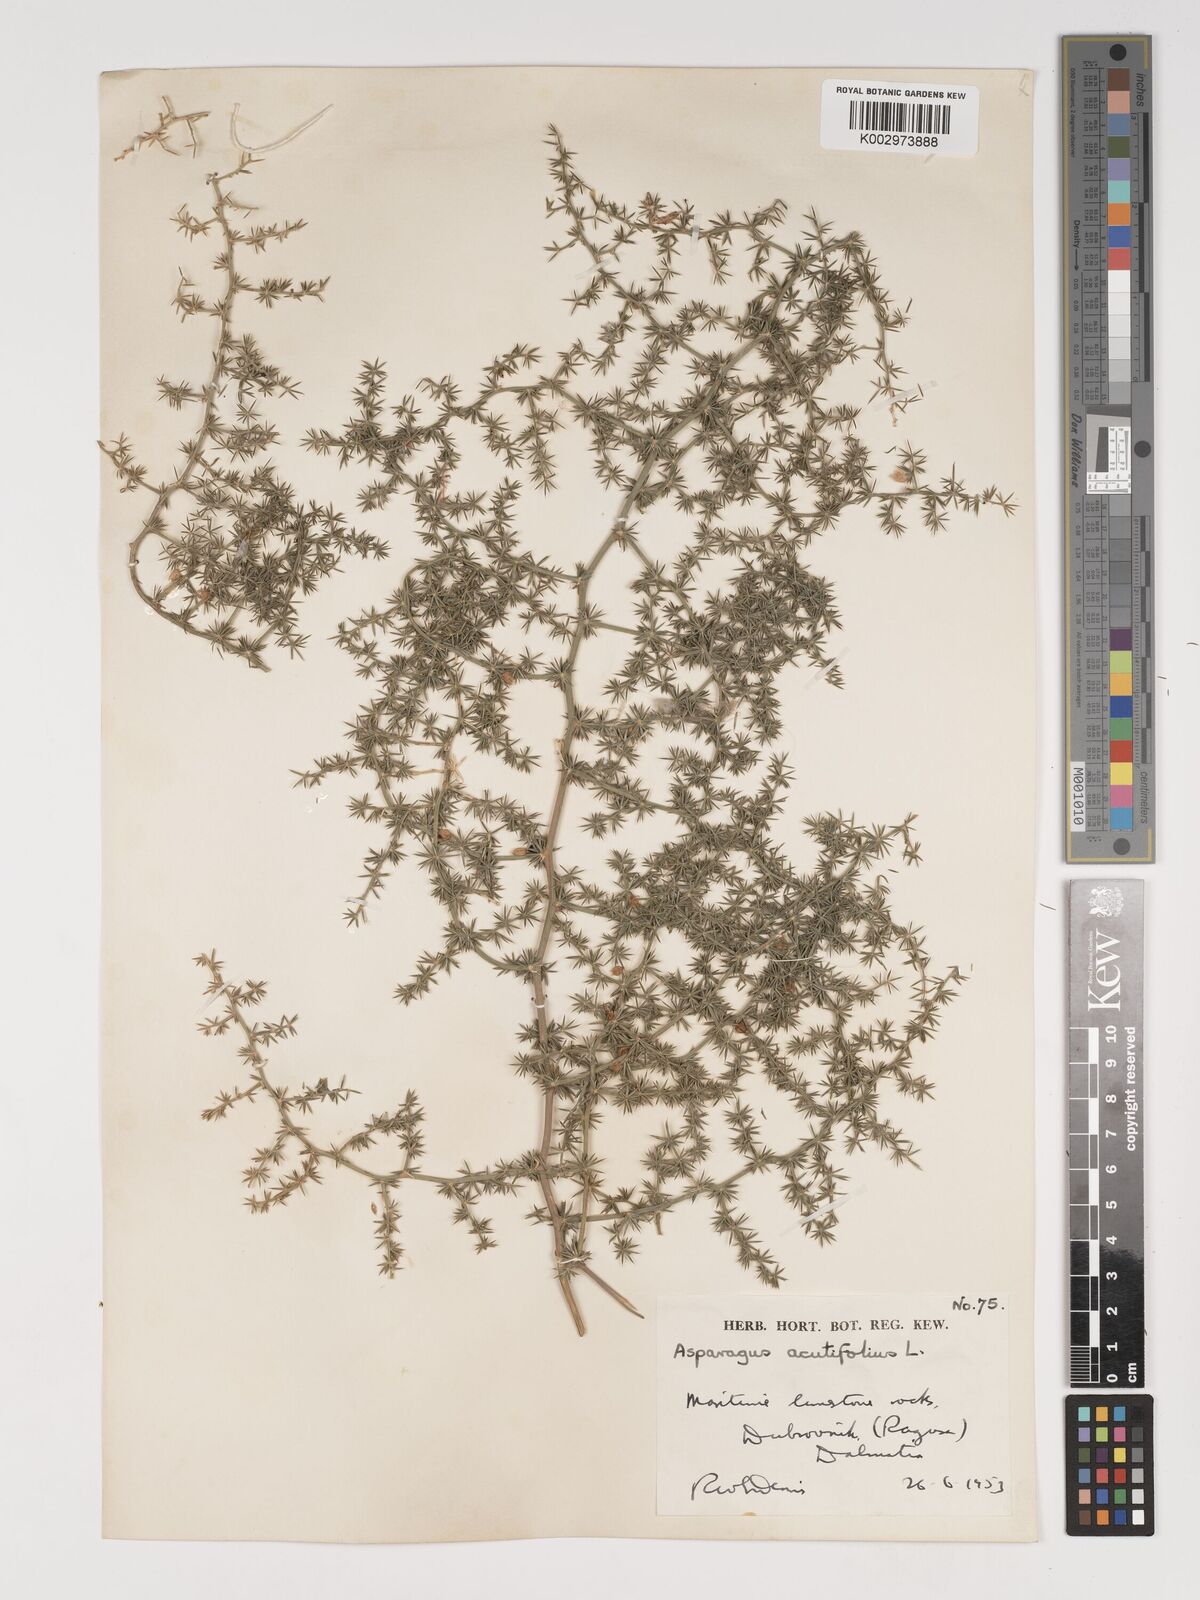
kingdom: Plantae
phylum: Tracheophyta
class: Liliopsida
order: Asparagales
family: Asparagaceae
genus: Asparagus
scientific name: Asparagus aethiopicus
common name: Sprenger's asparagus fern
